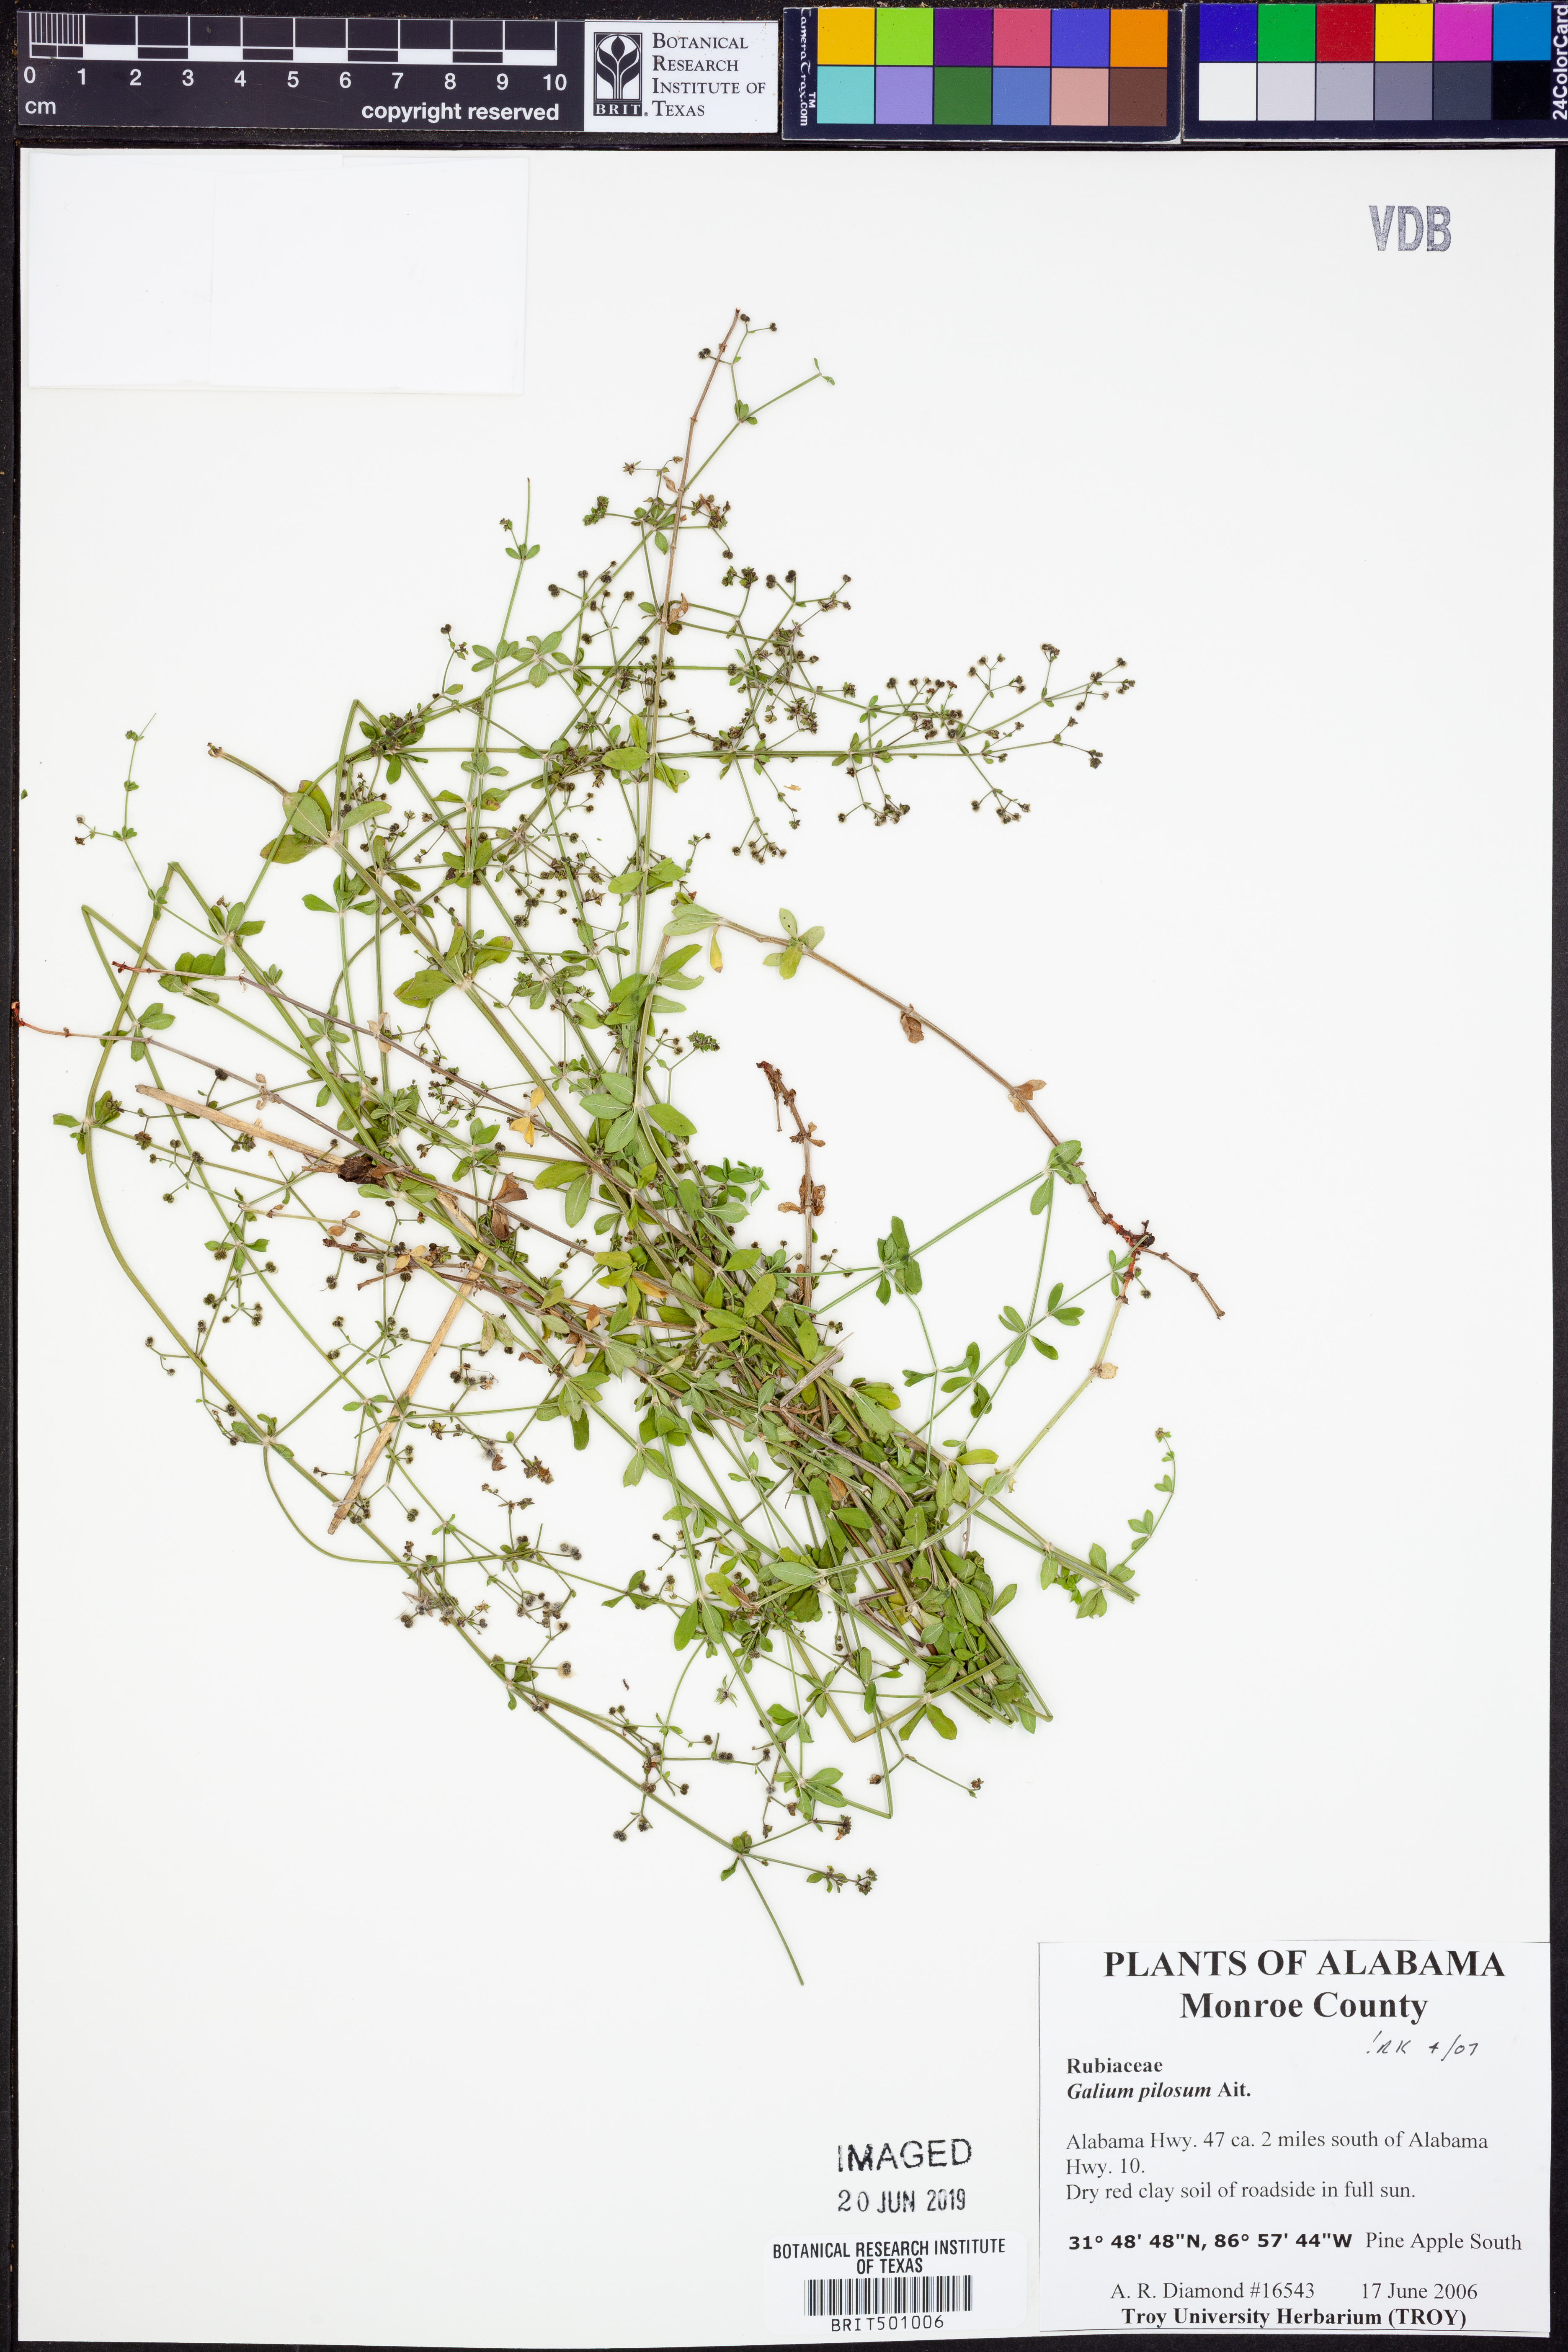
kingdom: Plantae
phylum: Tracheophyta
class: Magnoliopsida
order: Gentianales
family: Rubiaceae
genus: Galium
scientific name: Galium pilosum
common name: Hairy bedstraw
